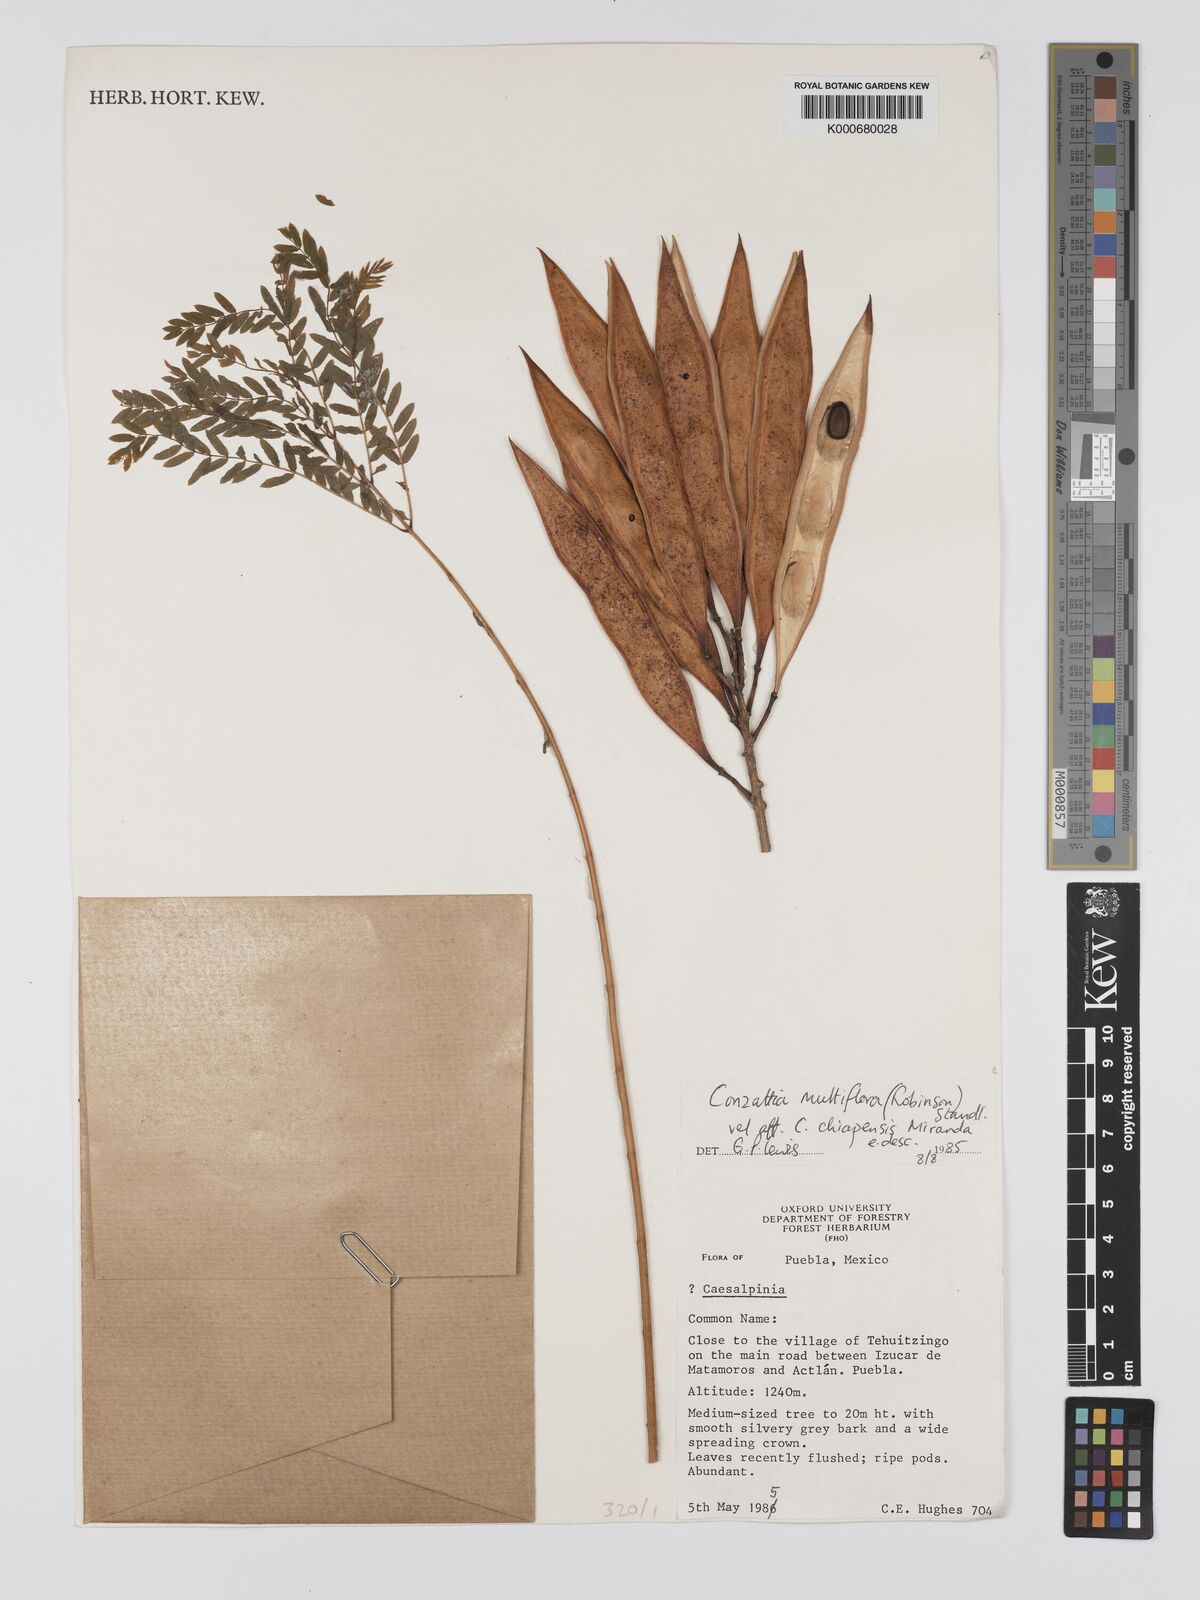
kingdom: Plantae
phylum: Tracheophyta
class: Magnoliopsida
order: Fabales
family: Fabaceae
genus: Conzattia
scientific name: Conzattia multiflora
